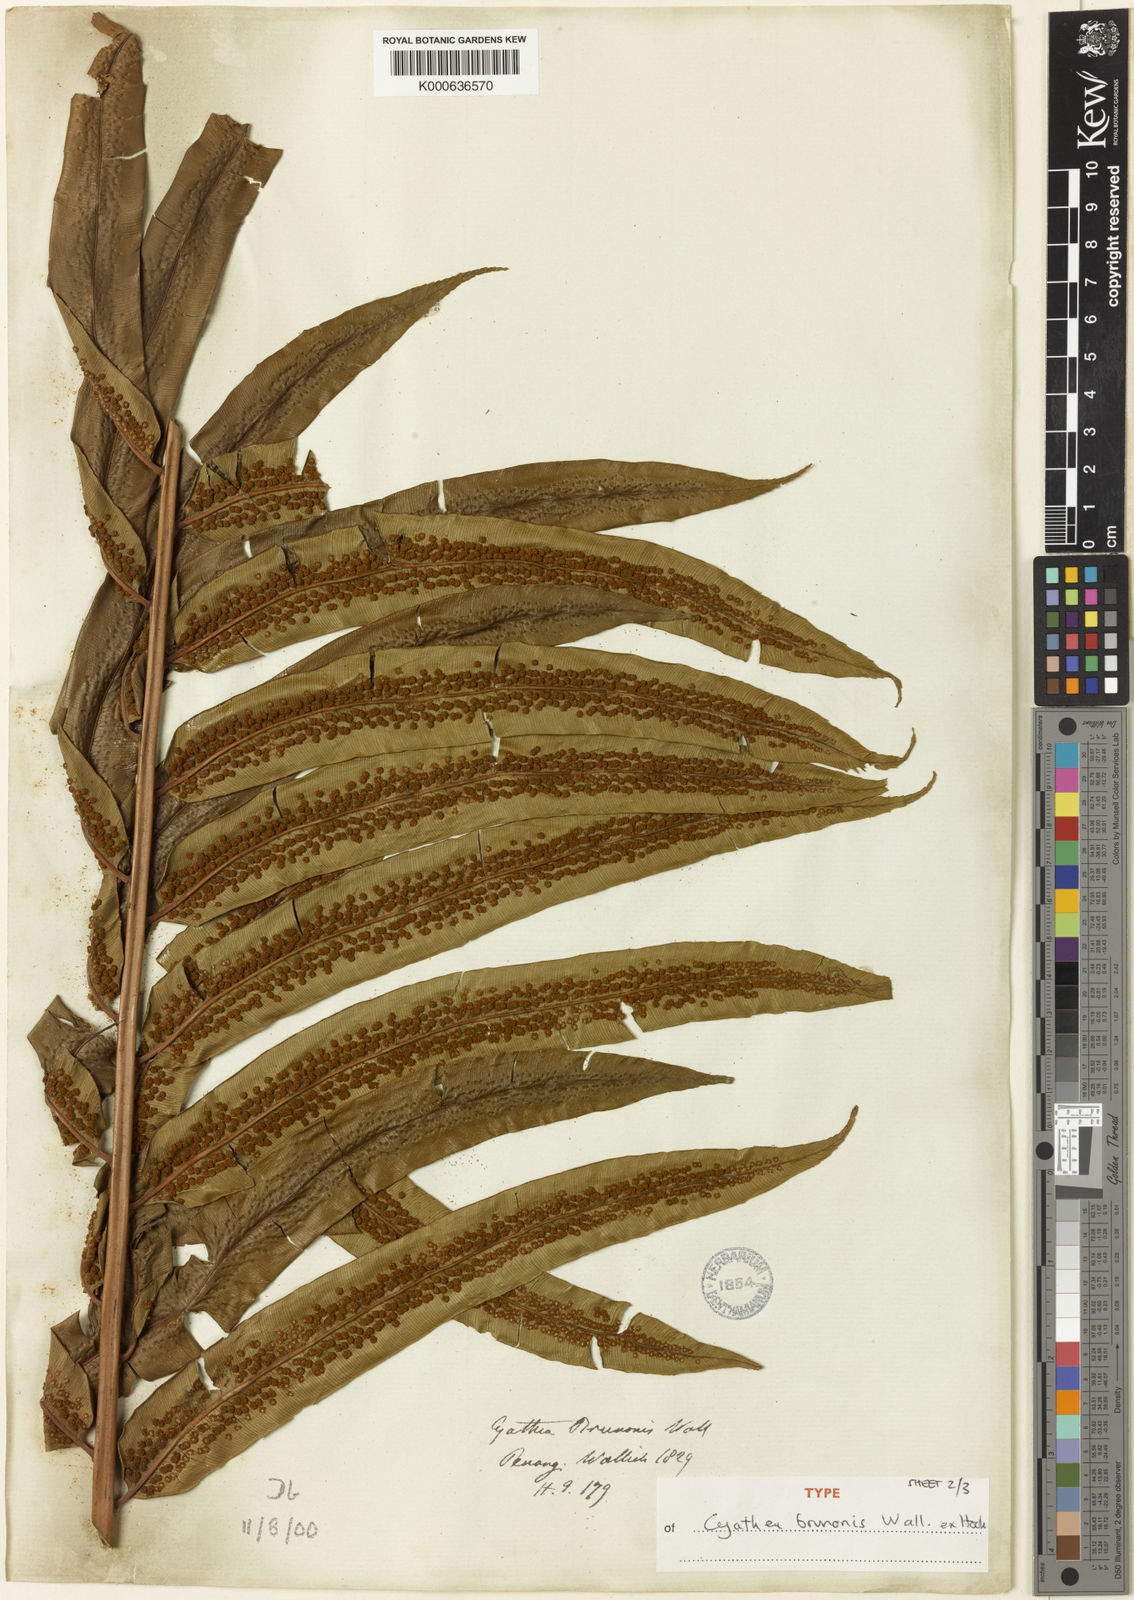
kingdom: Plantae
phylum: Tracheophyta
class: Polypodiopsida
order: Cyatheales
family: Cyatheaceae
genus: Sphaeropteris
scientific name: Sphaeropteris moluccana
